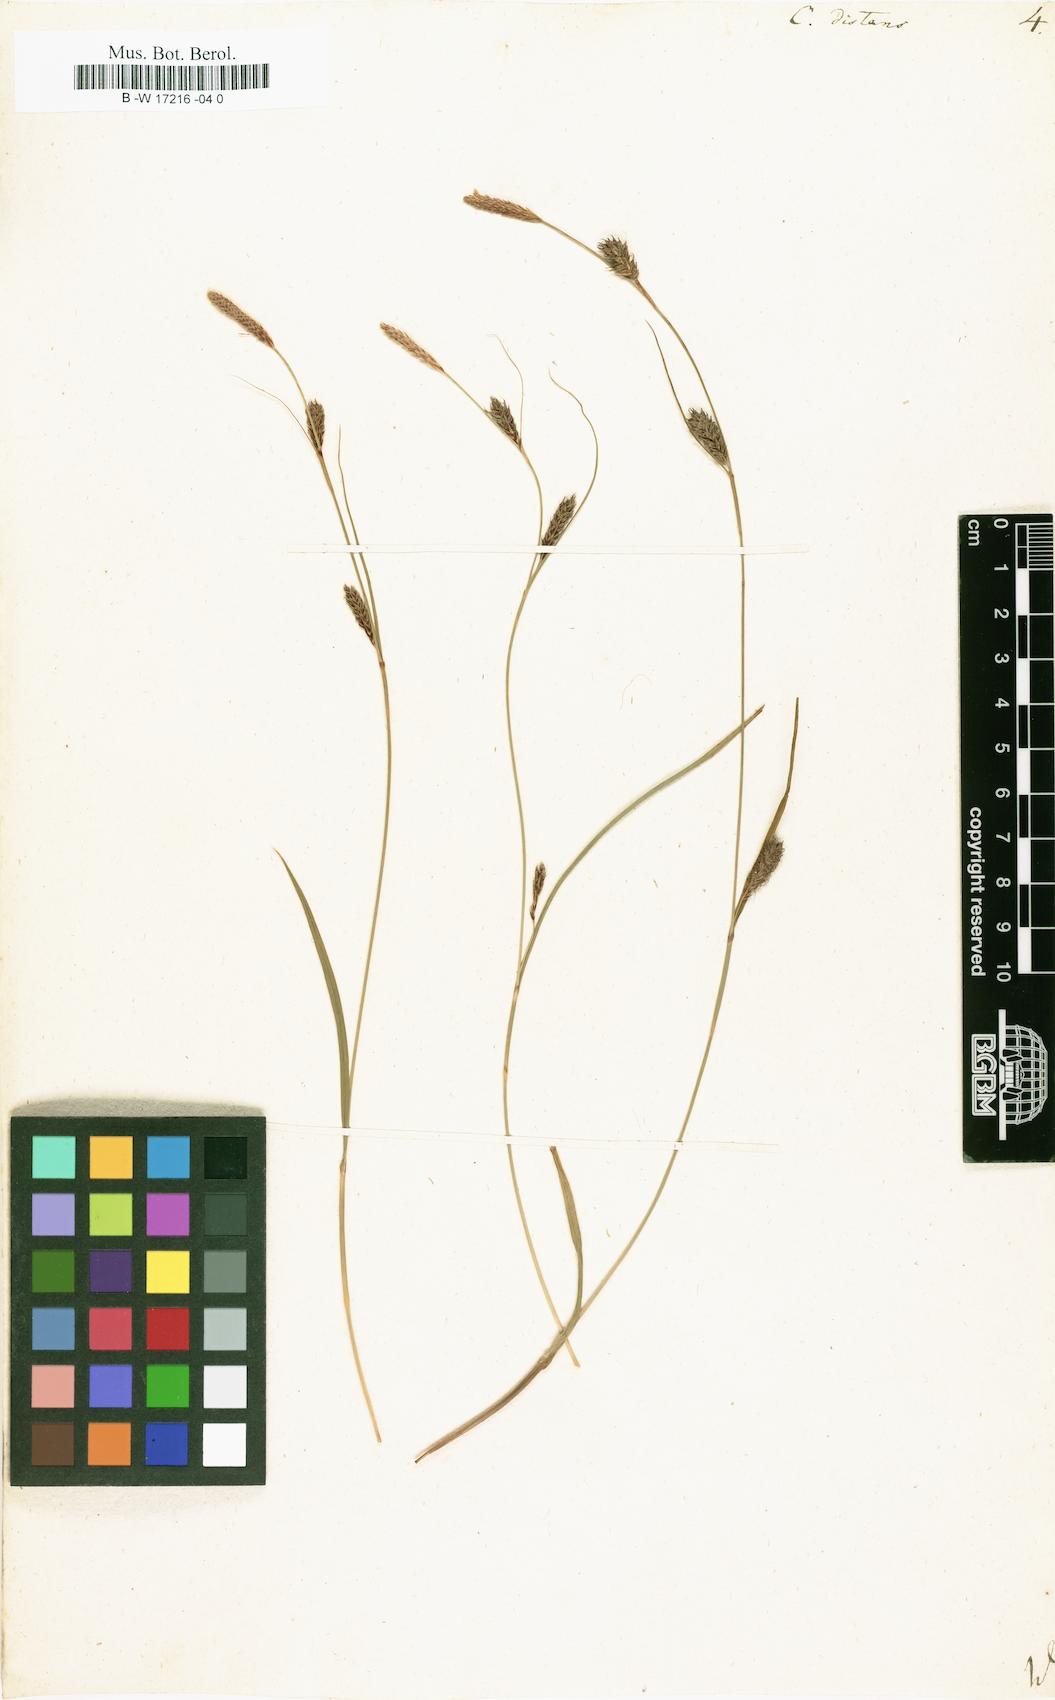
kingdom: Plantae
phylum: Tracheophyta
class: Liliopsida
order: Poales
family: Cyperaceae
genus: Carex
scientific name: Carex distans
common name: Distant sedge
